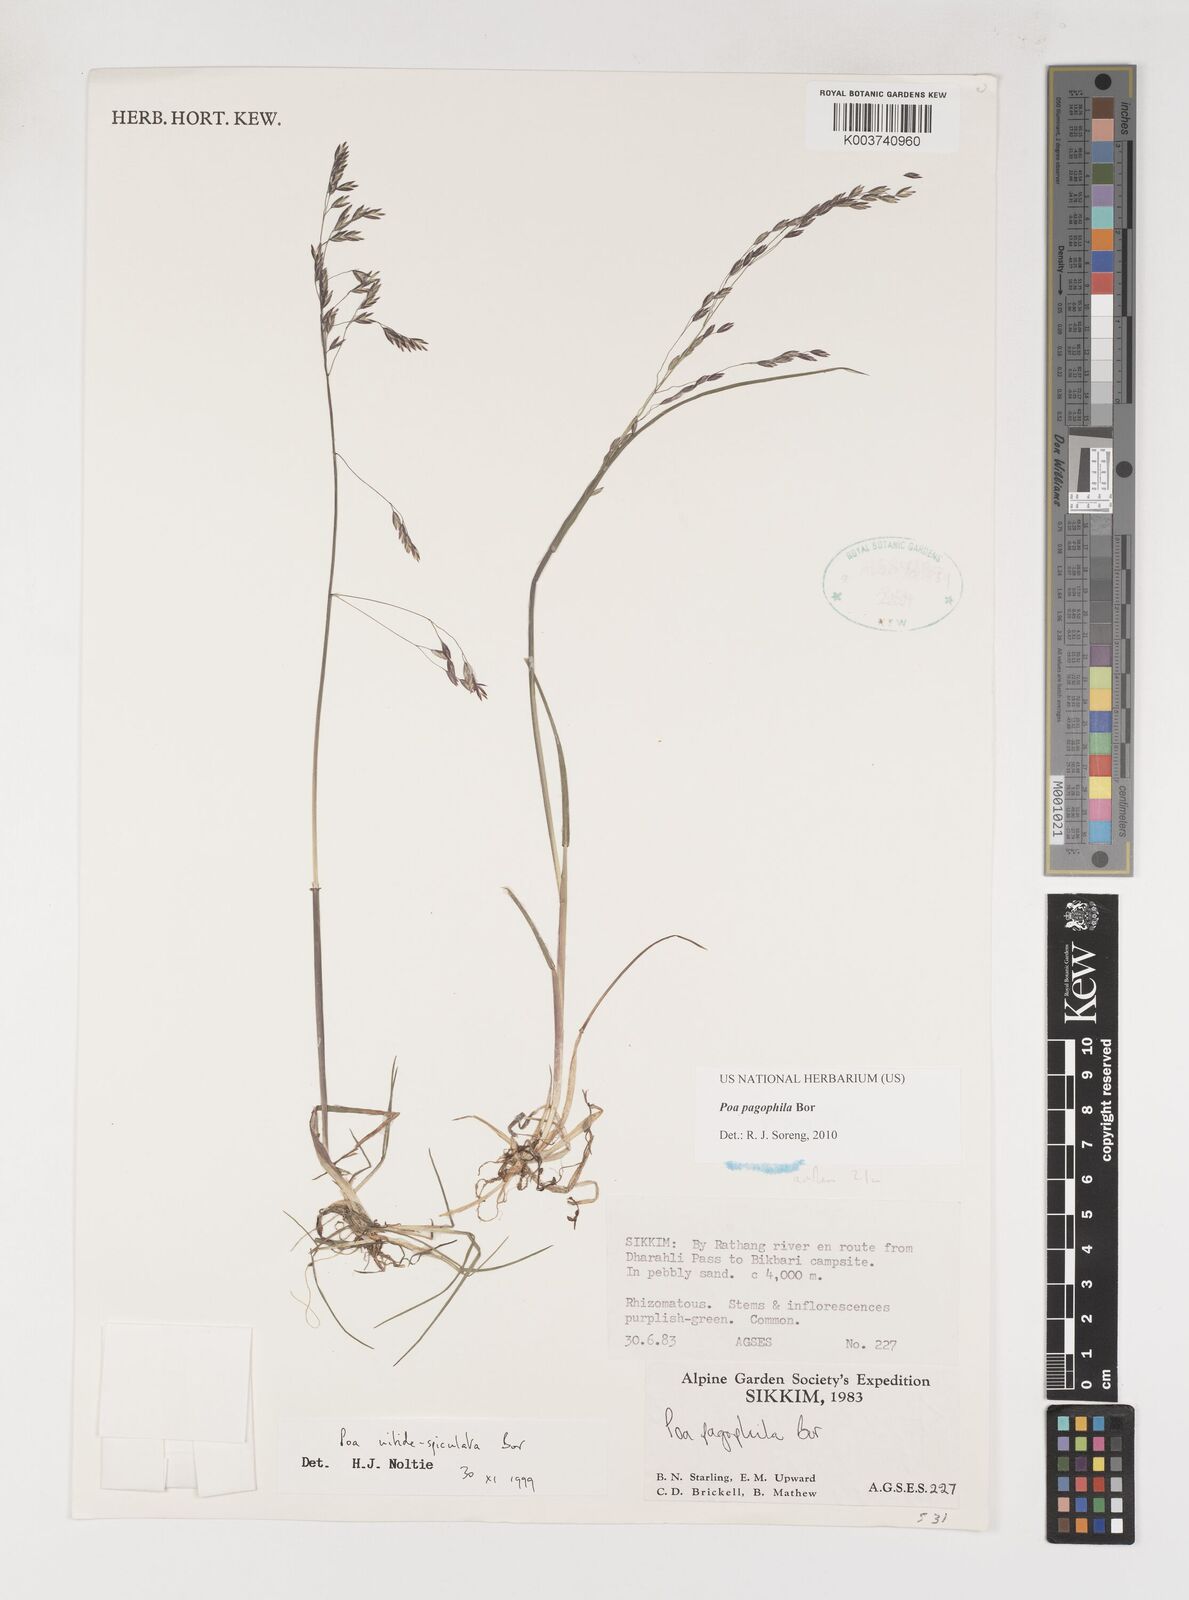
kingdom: Plantae
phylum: Tracheophyta
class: Liliopsida
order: Poales
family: Poaceae
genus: Poa
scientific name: Poa pagophila
